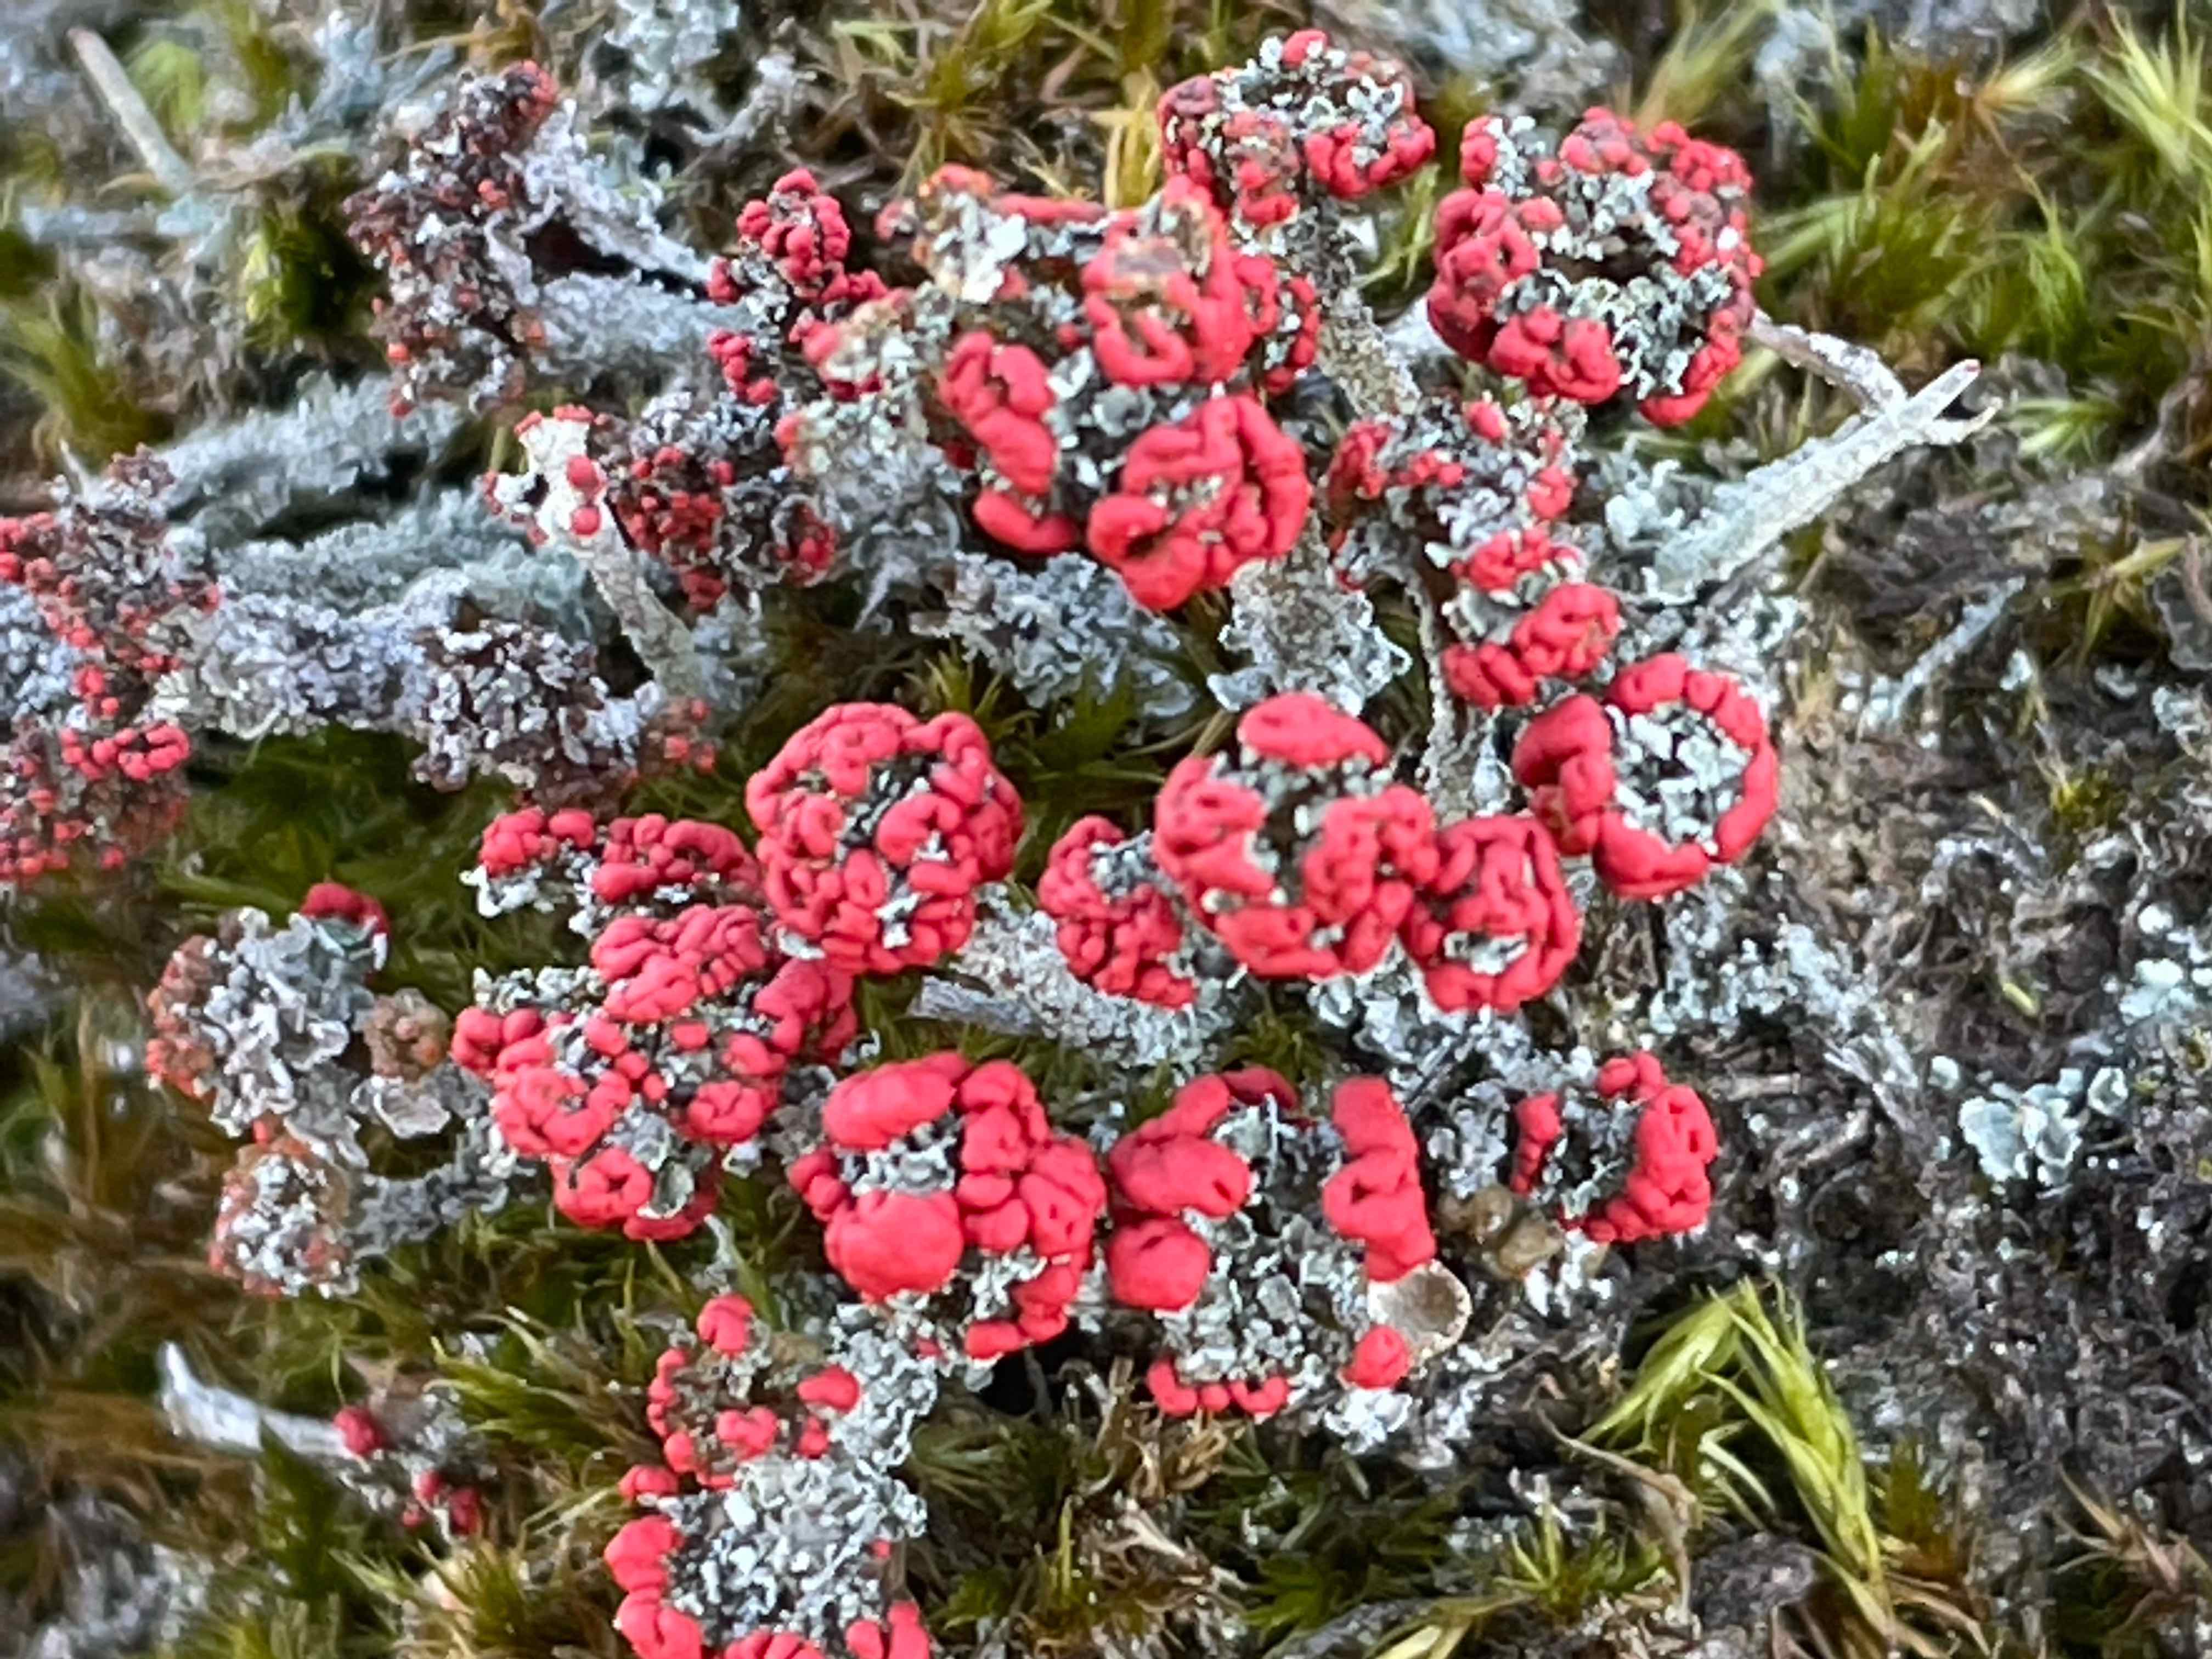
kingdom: Fungi
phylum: Ascomycota
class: Lecanoromycetes
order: Lecanorales
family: Cladoniaceae
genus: Cladonia
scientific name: Cladonia floerkeana
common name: lakrød bægerlav
